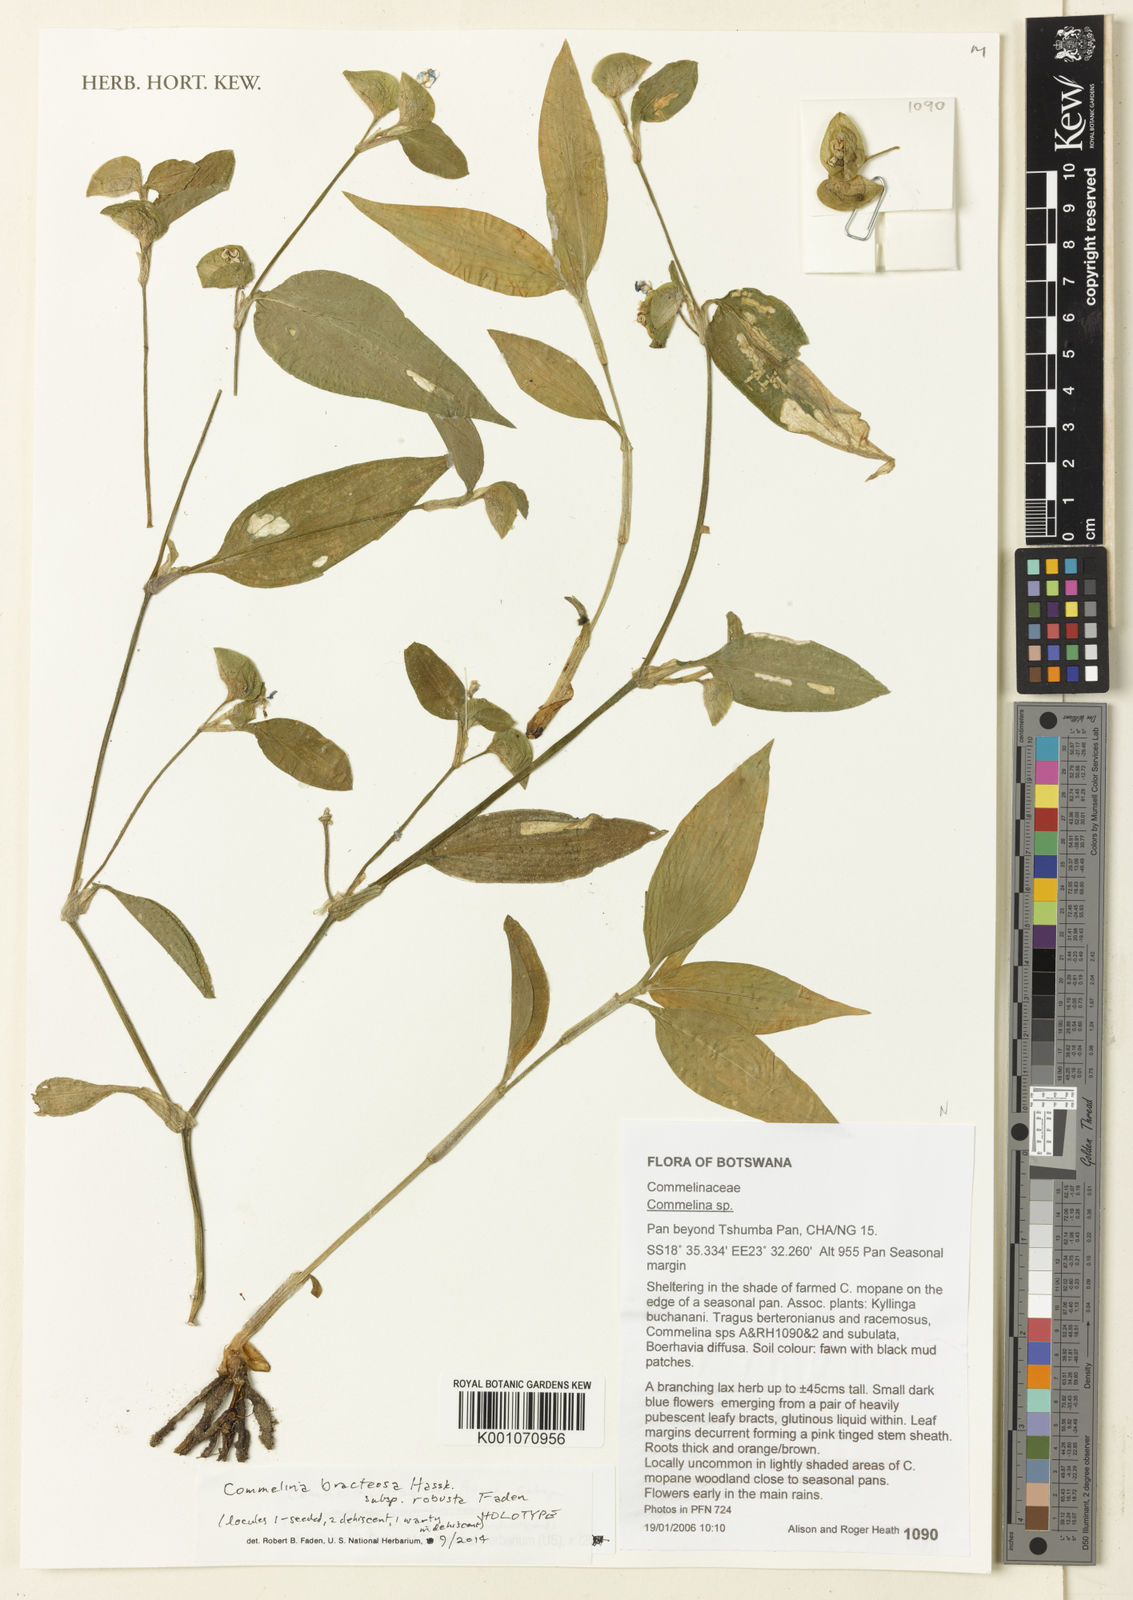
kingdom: Plantae
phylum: Tracheophyta
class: Liliopsida
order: Commelinales
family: Commelinaceae
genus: Commelina
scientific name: Commelina bracteosa
